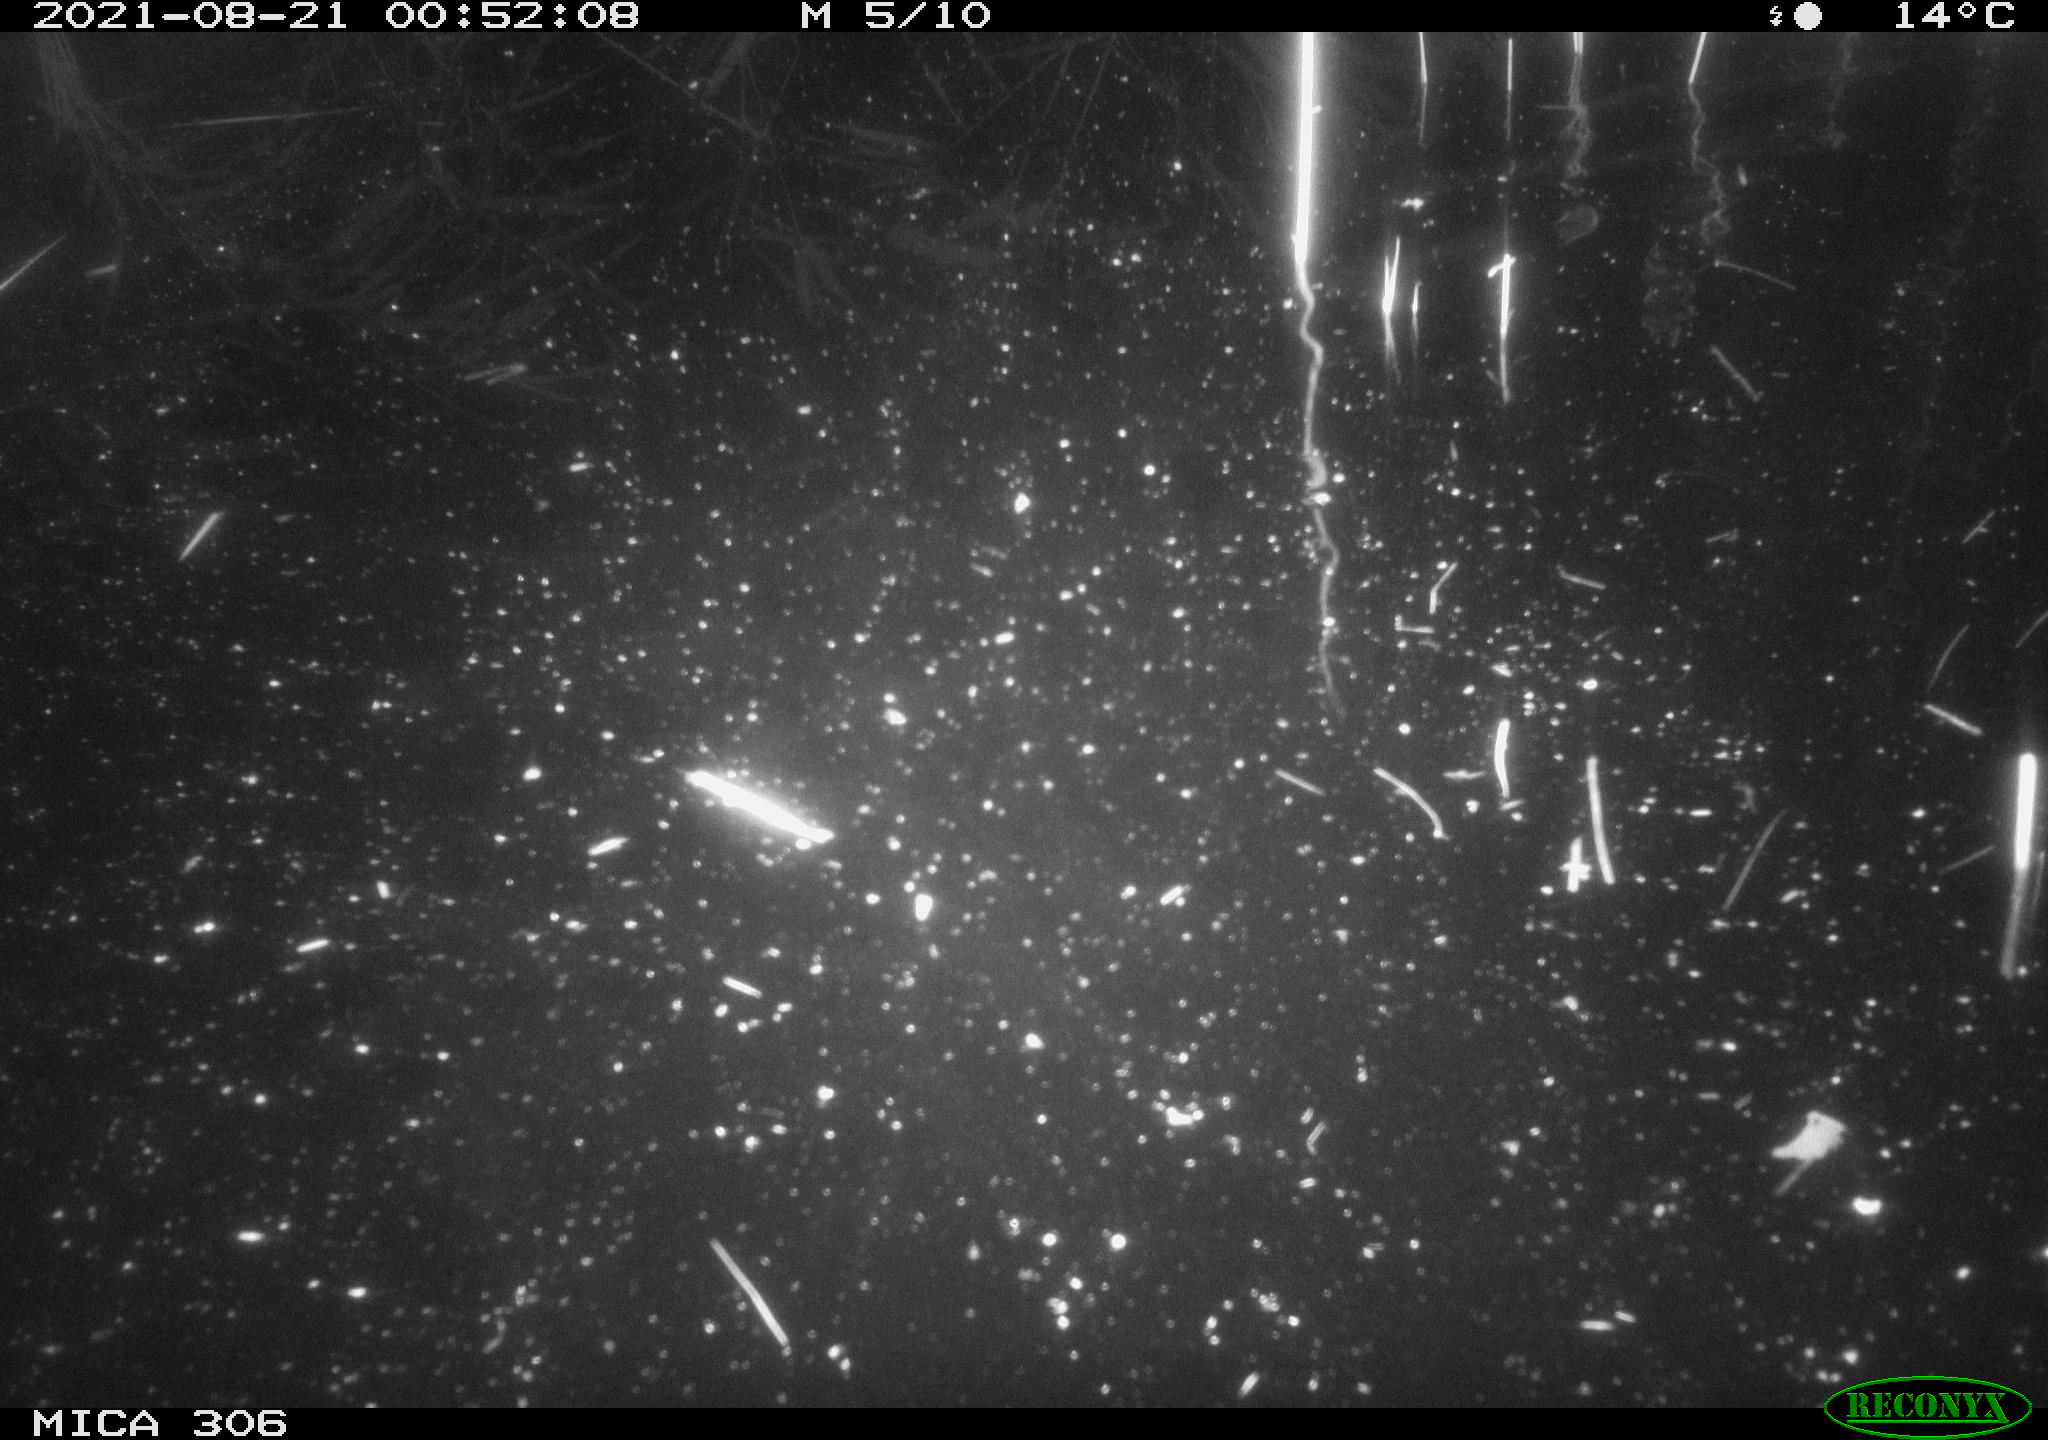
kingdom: Animalia
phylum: Chordata
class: Mammalia
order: Rodentia
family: Muridae
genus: Rattus
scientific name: Rattus norvegicus
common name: Brown rat
